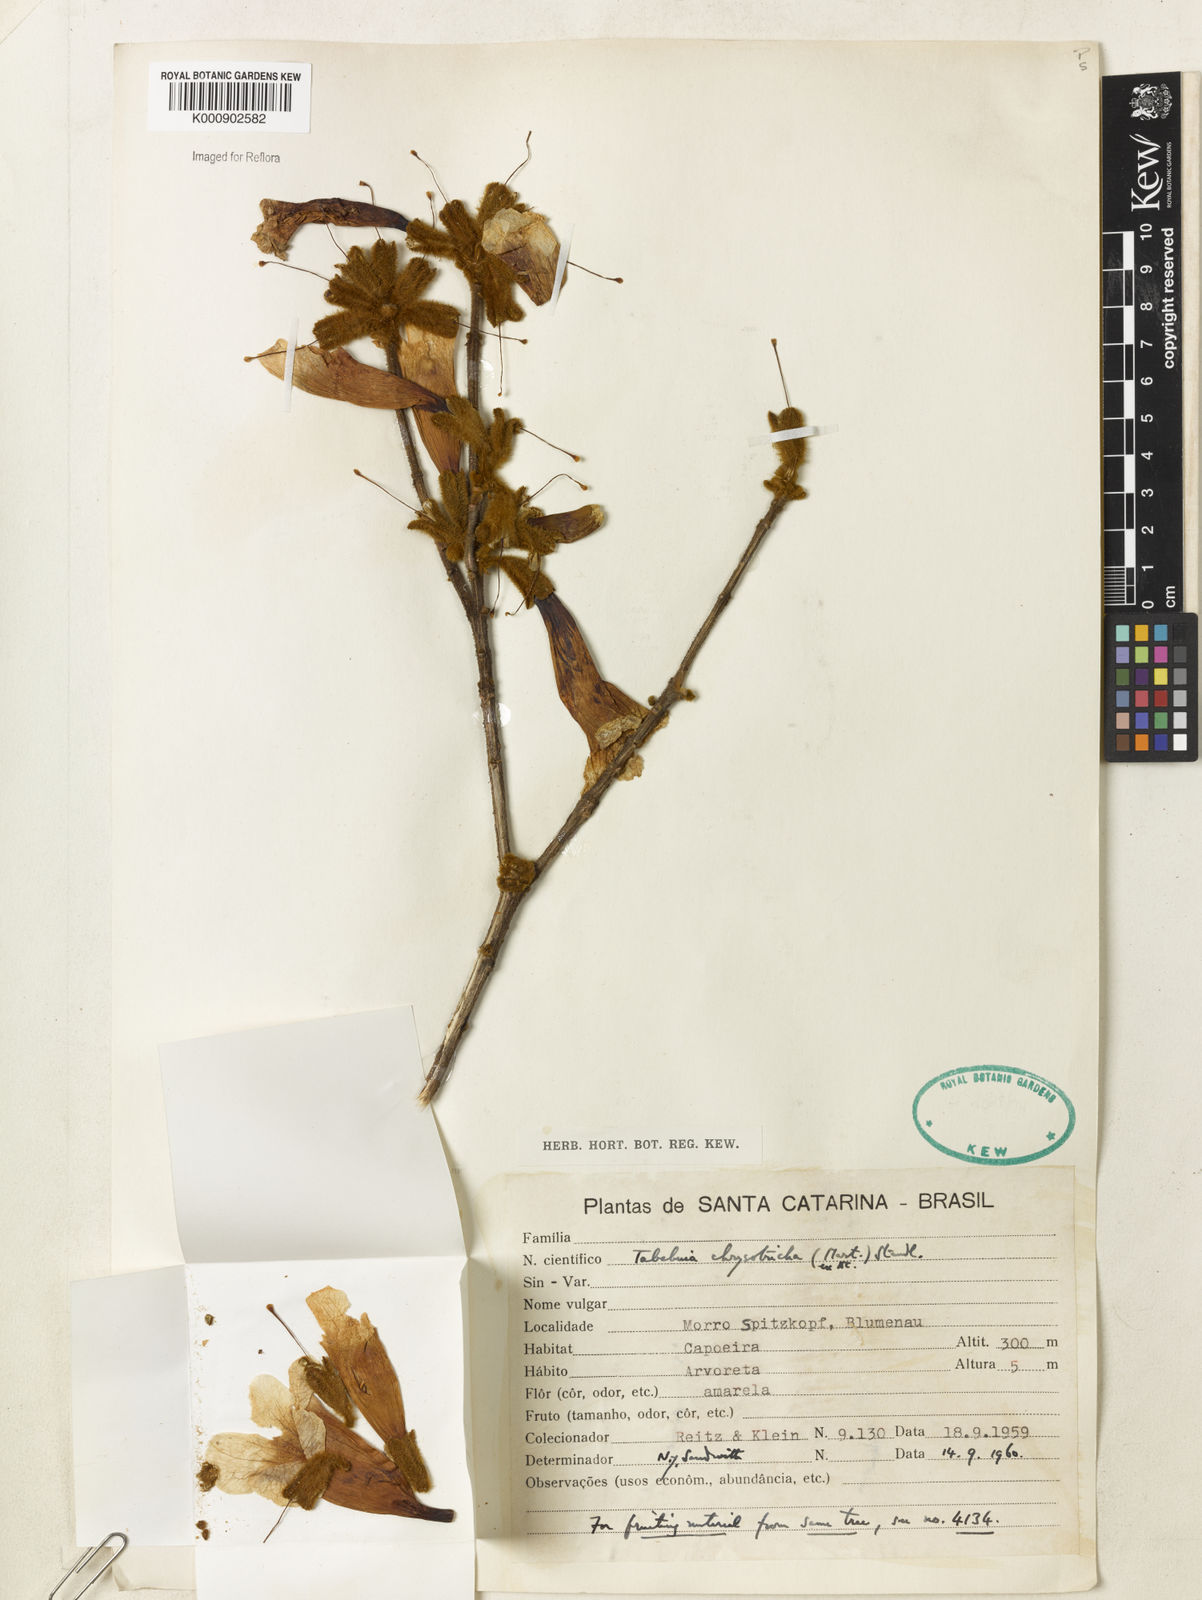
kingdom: Plantae
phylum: Tracheophyta
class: Magnoliopsida
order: Lamiales
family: Bignoniaceae
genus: Handroanthus
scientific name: Handroanthus chrysotrichus
